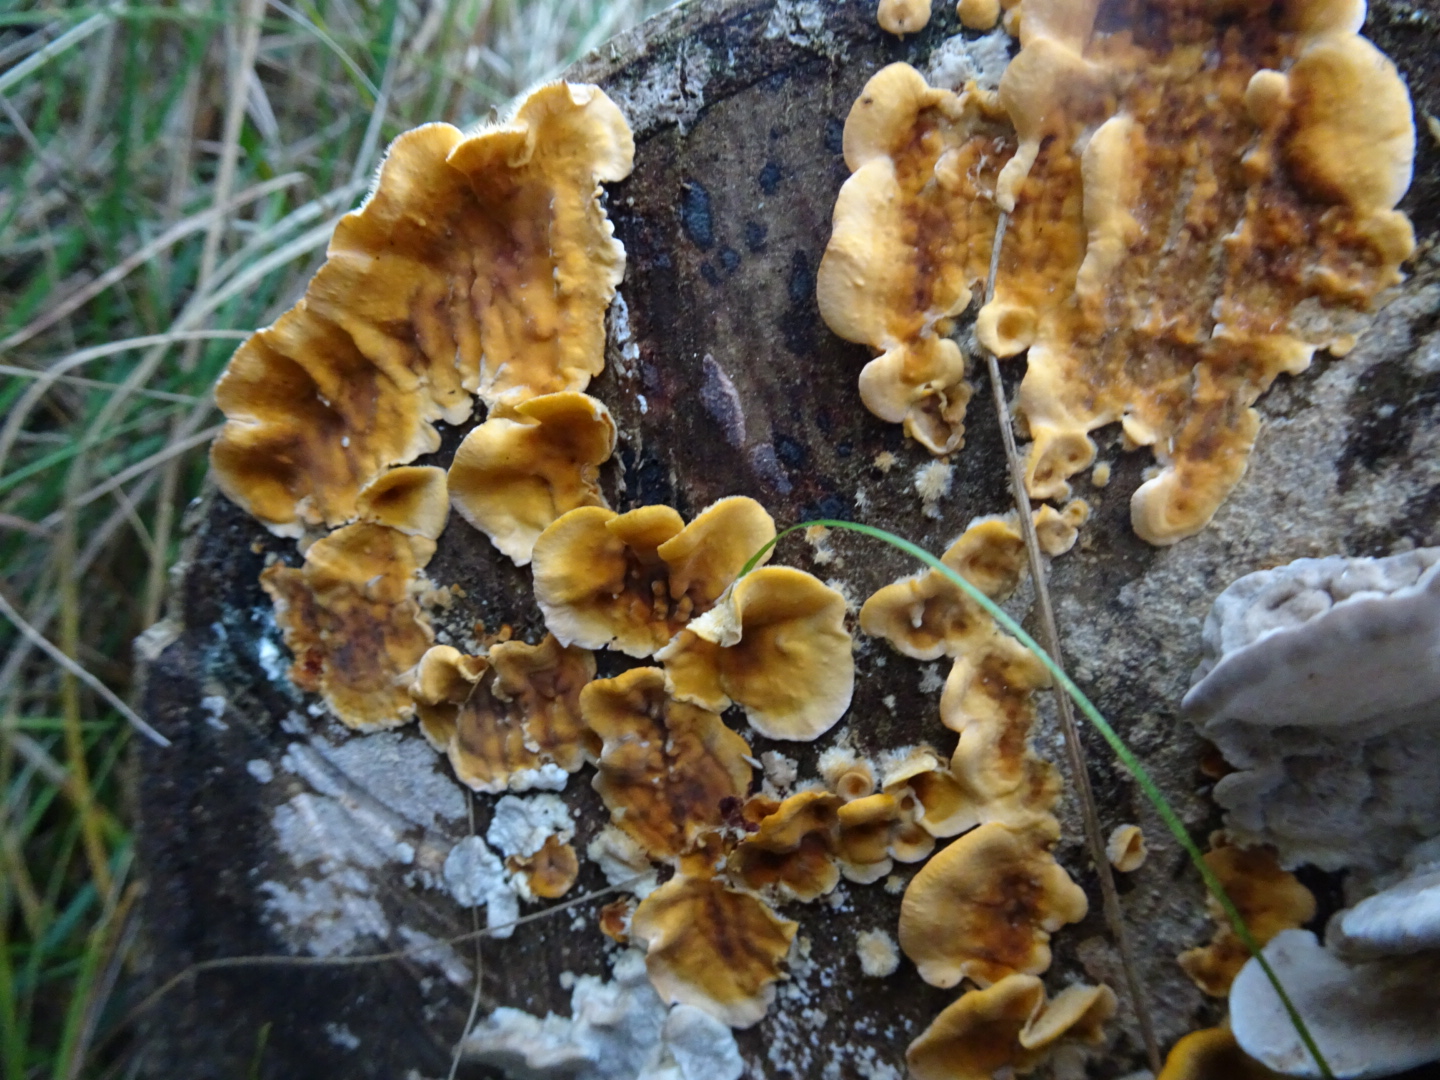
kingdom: Fungi
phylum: Basidiomycota
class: Agaricomycetes
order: Russulales
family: Stereaceae
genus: Stereum
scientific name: Stereum hirsutum
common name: håret lædersvamp
